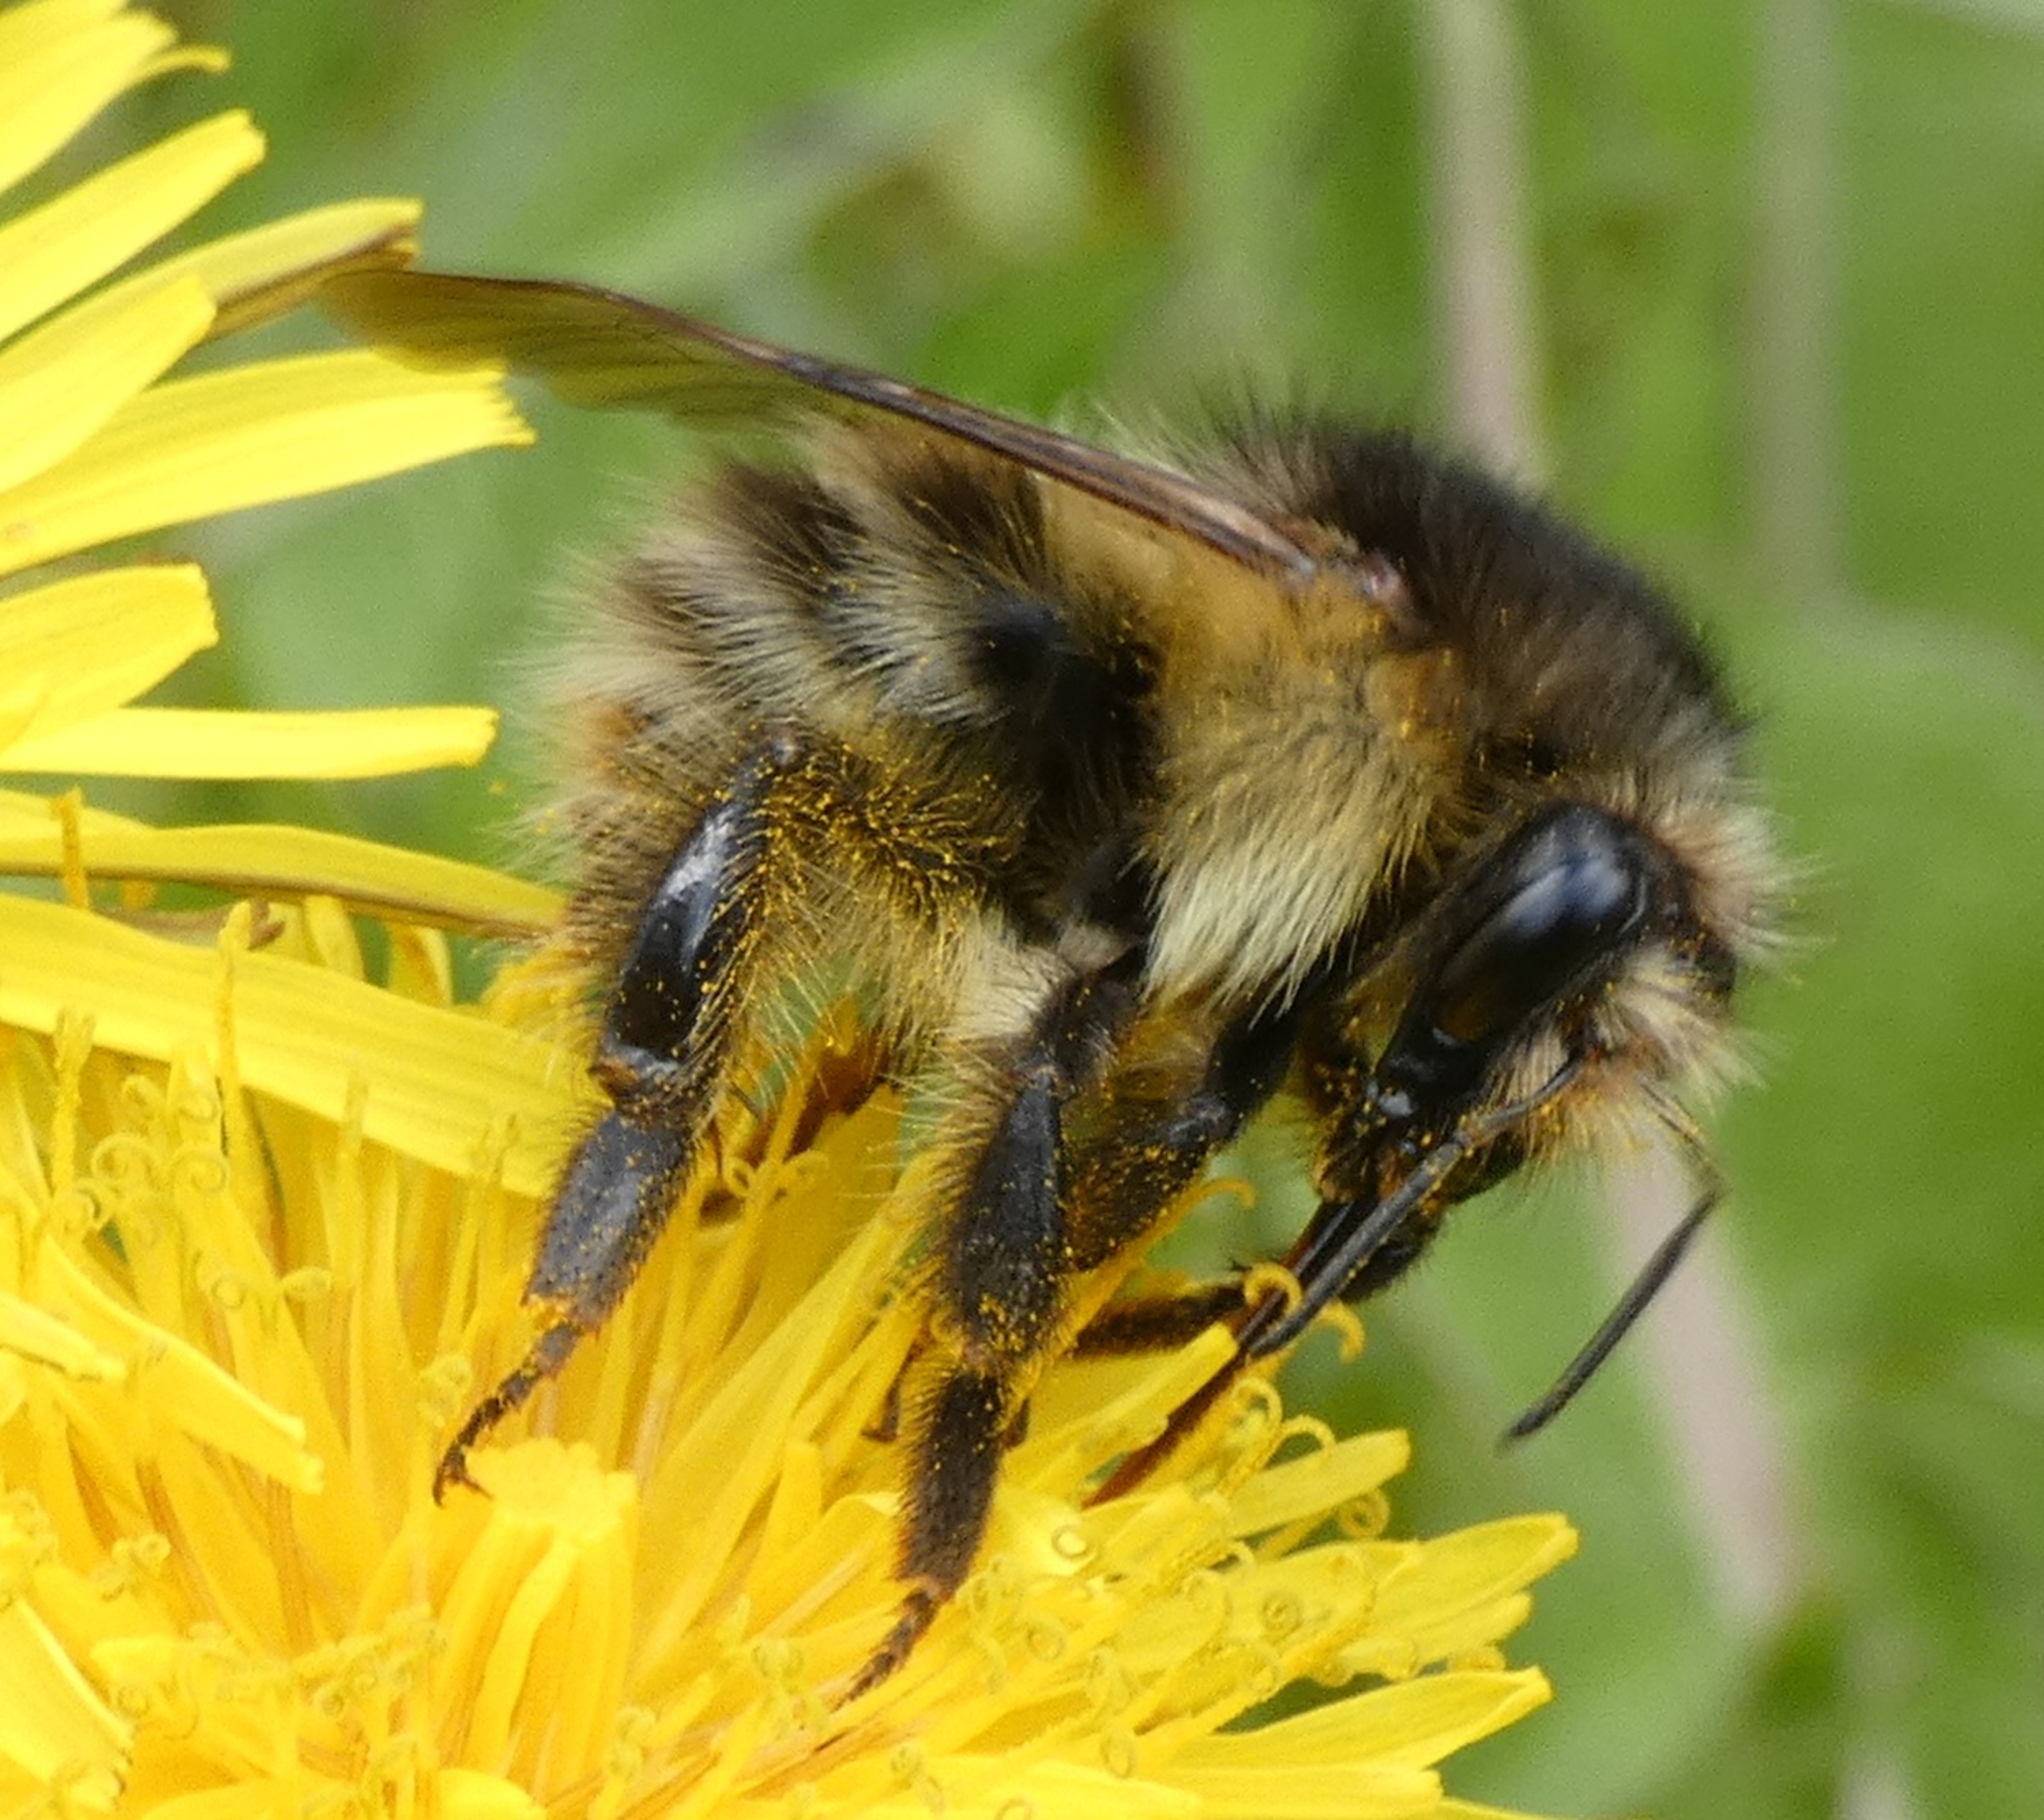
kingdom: Animalia
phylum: Arthropoda
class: Insecta
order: Hymenoptera
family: Apidae
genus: Bombus
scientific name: Bombus pascuorum
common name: Agerhumle
